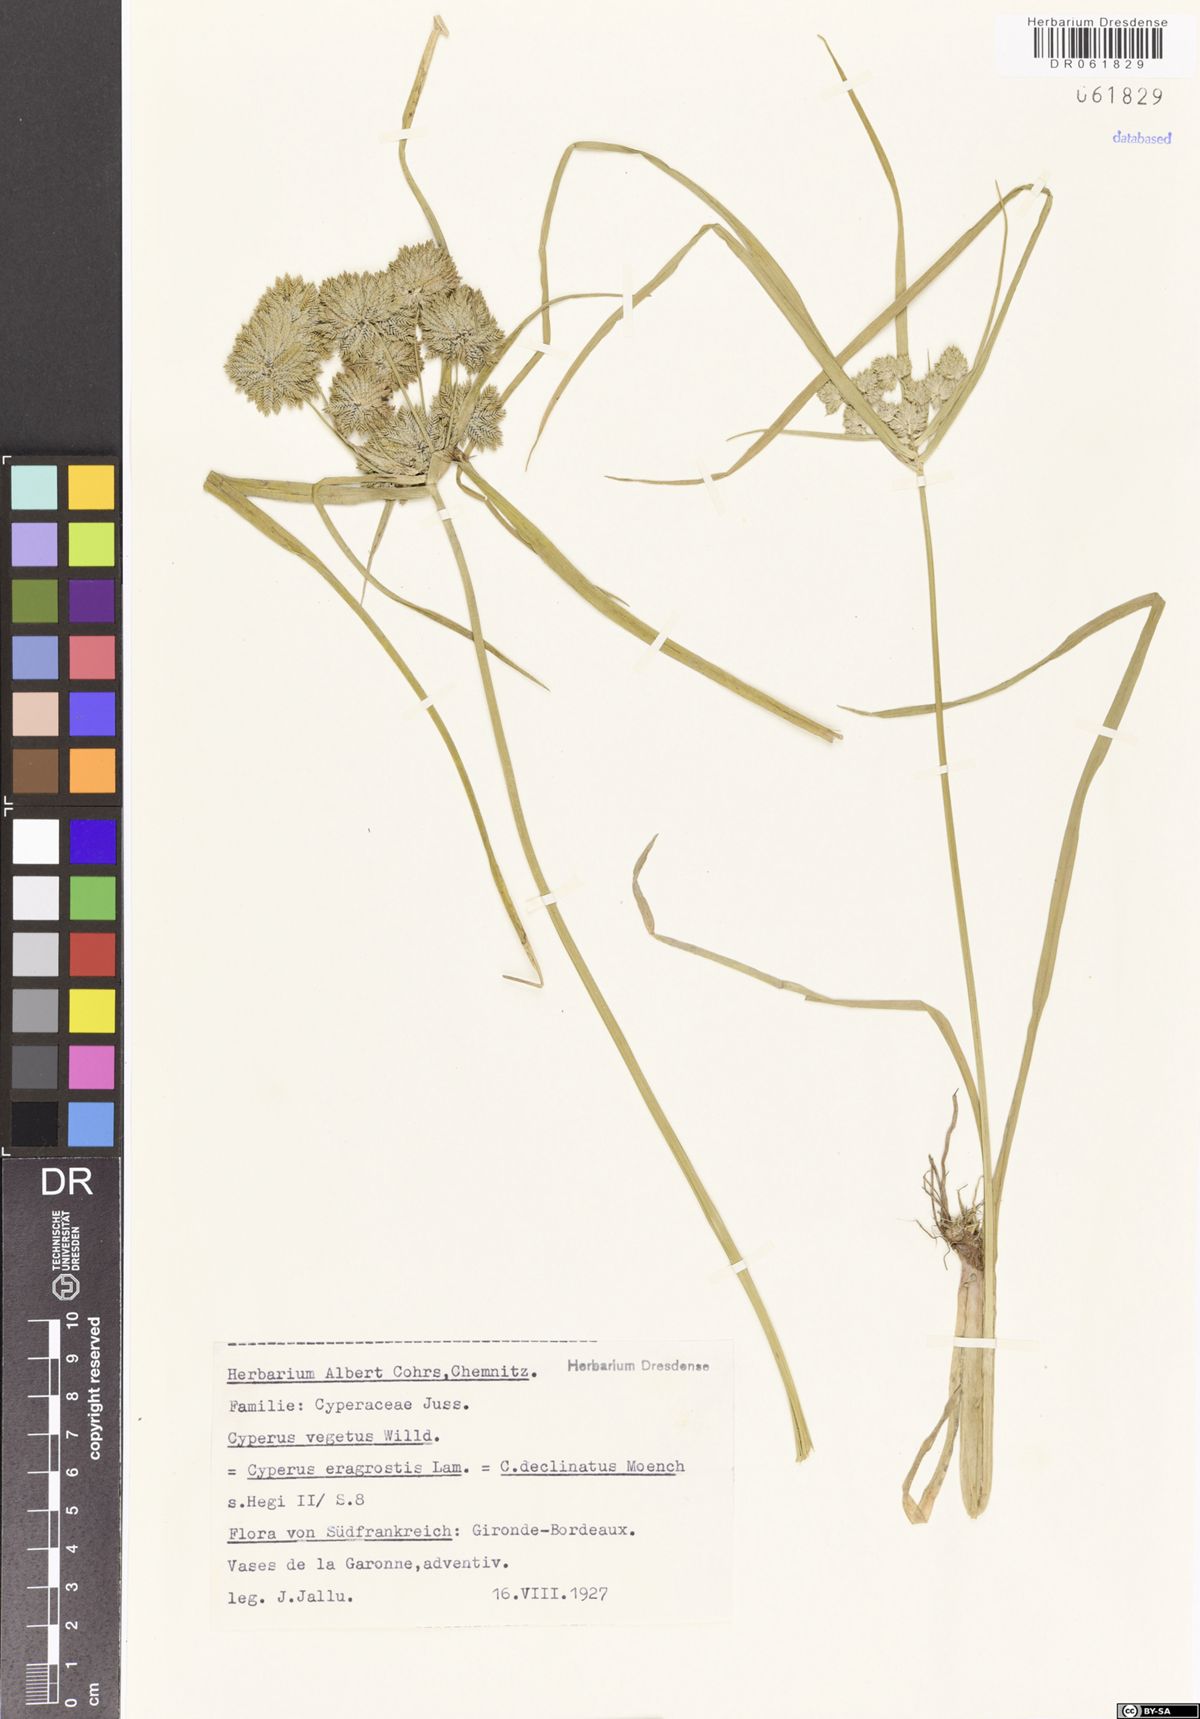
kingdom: Plantae
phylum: Tracheophyta
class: Liliopsida
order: Poales
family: Cyperaceae
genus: Cyperus
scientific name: Cyperus eragrostis
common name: Tall flatsedge
